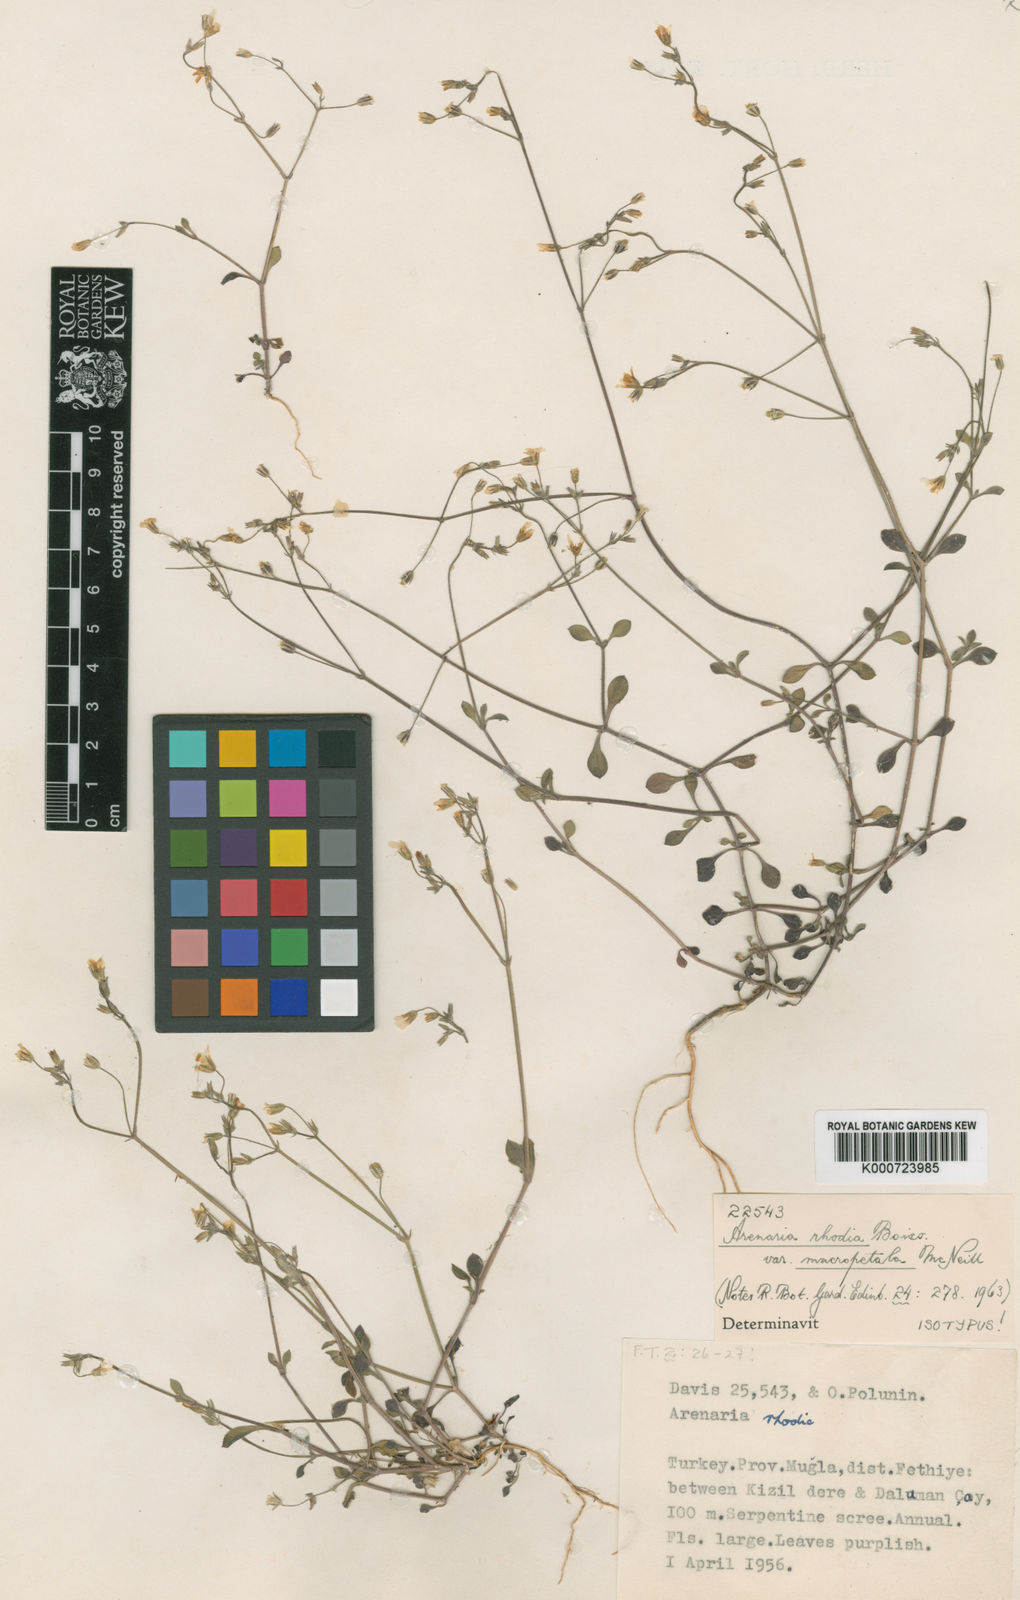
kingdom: Plantae
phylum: Tracheophyta
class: Magnoliopsida
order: Caryophyllales
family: Caryophyllaceae
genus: Arenaria
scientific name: Arenaria rhodia
